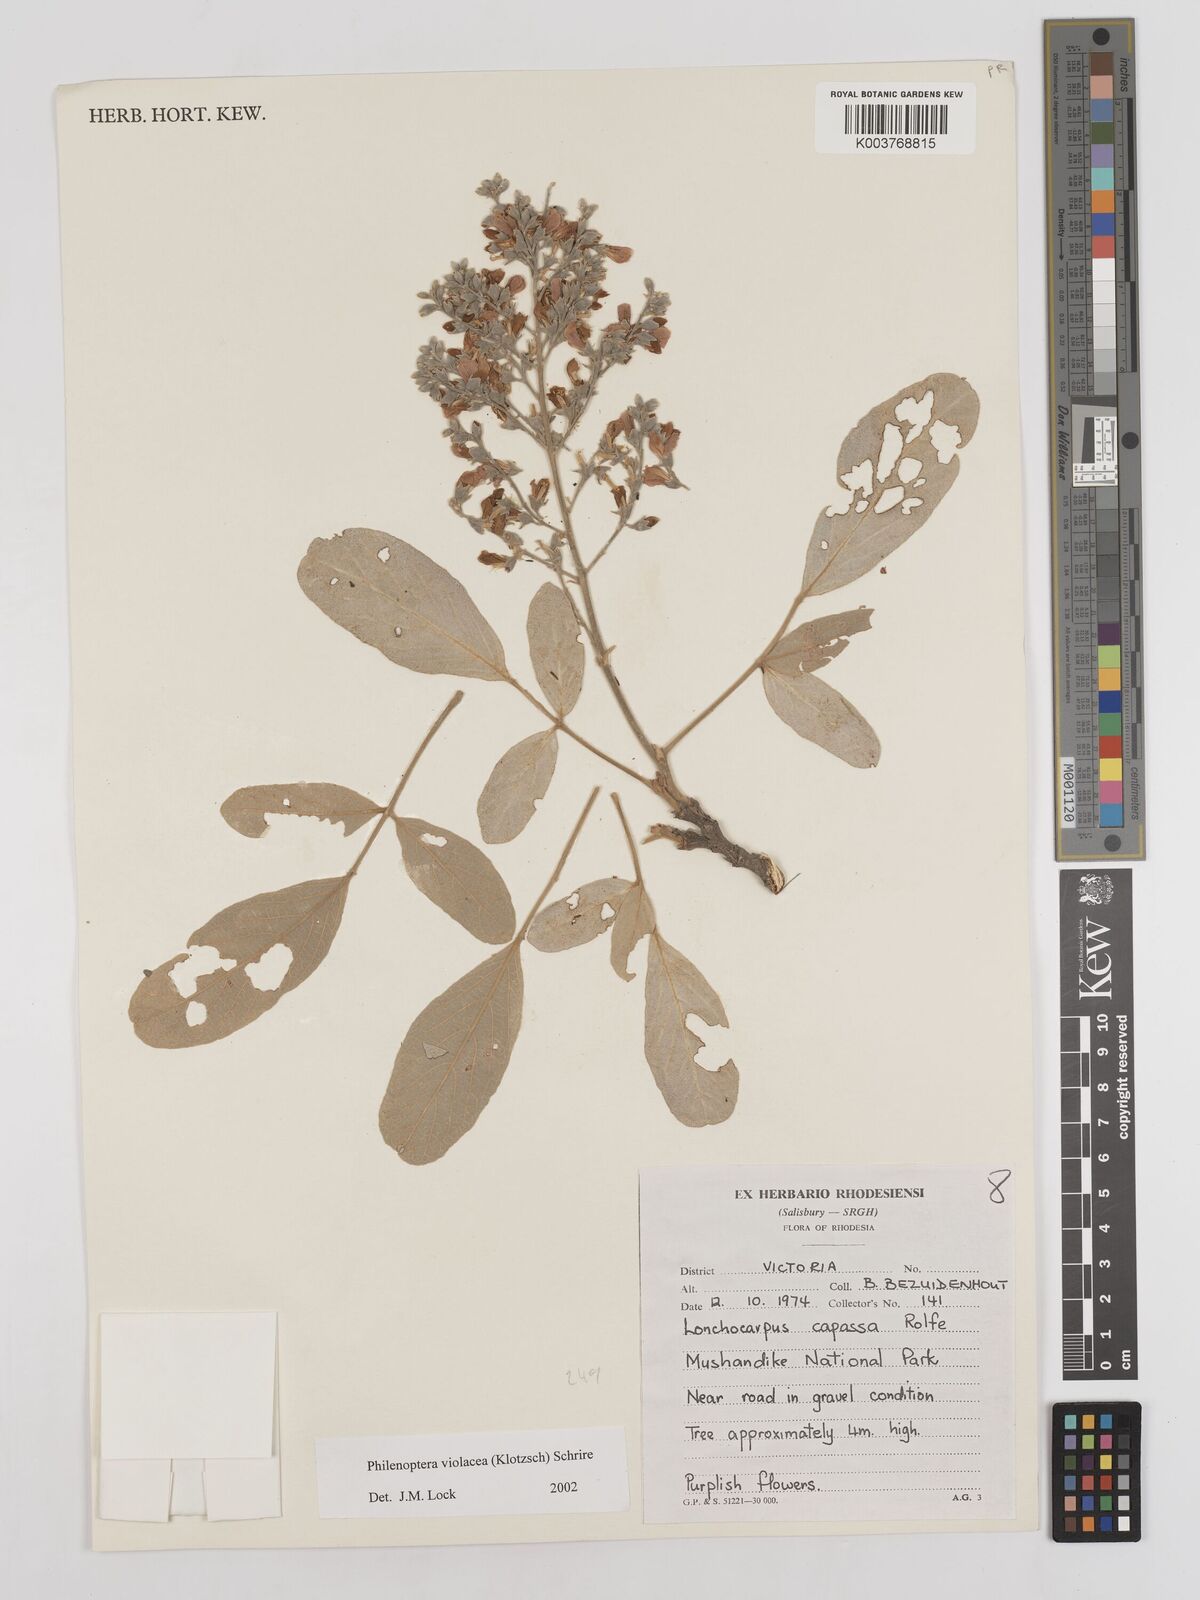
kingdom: Plantae
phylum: Tracheophyta
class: Magnoliopsida
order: Fabales
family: Fabaceae
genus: Philenoptera
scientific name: Philenoptera violacea
